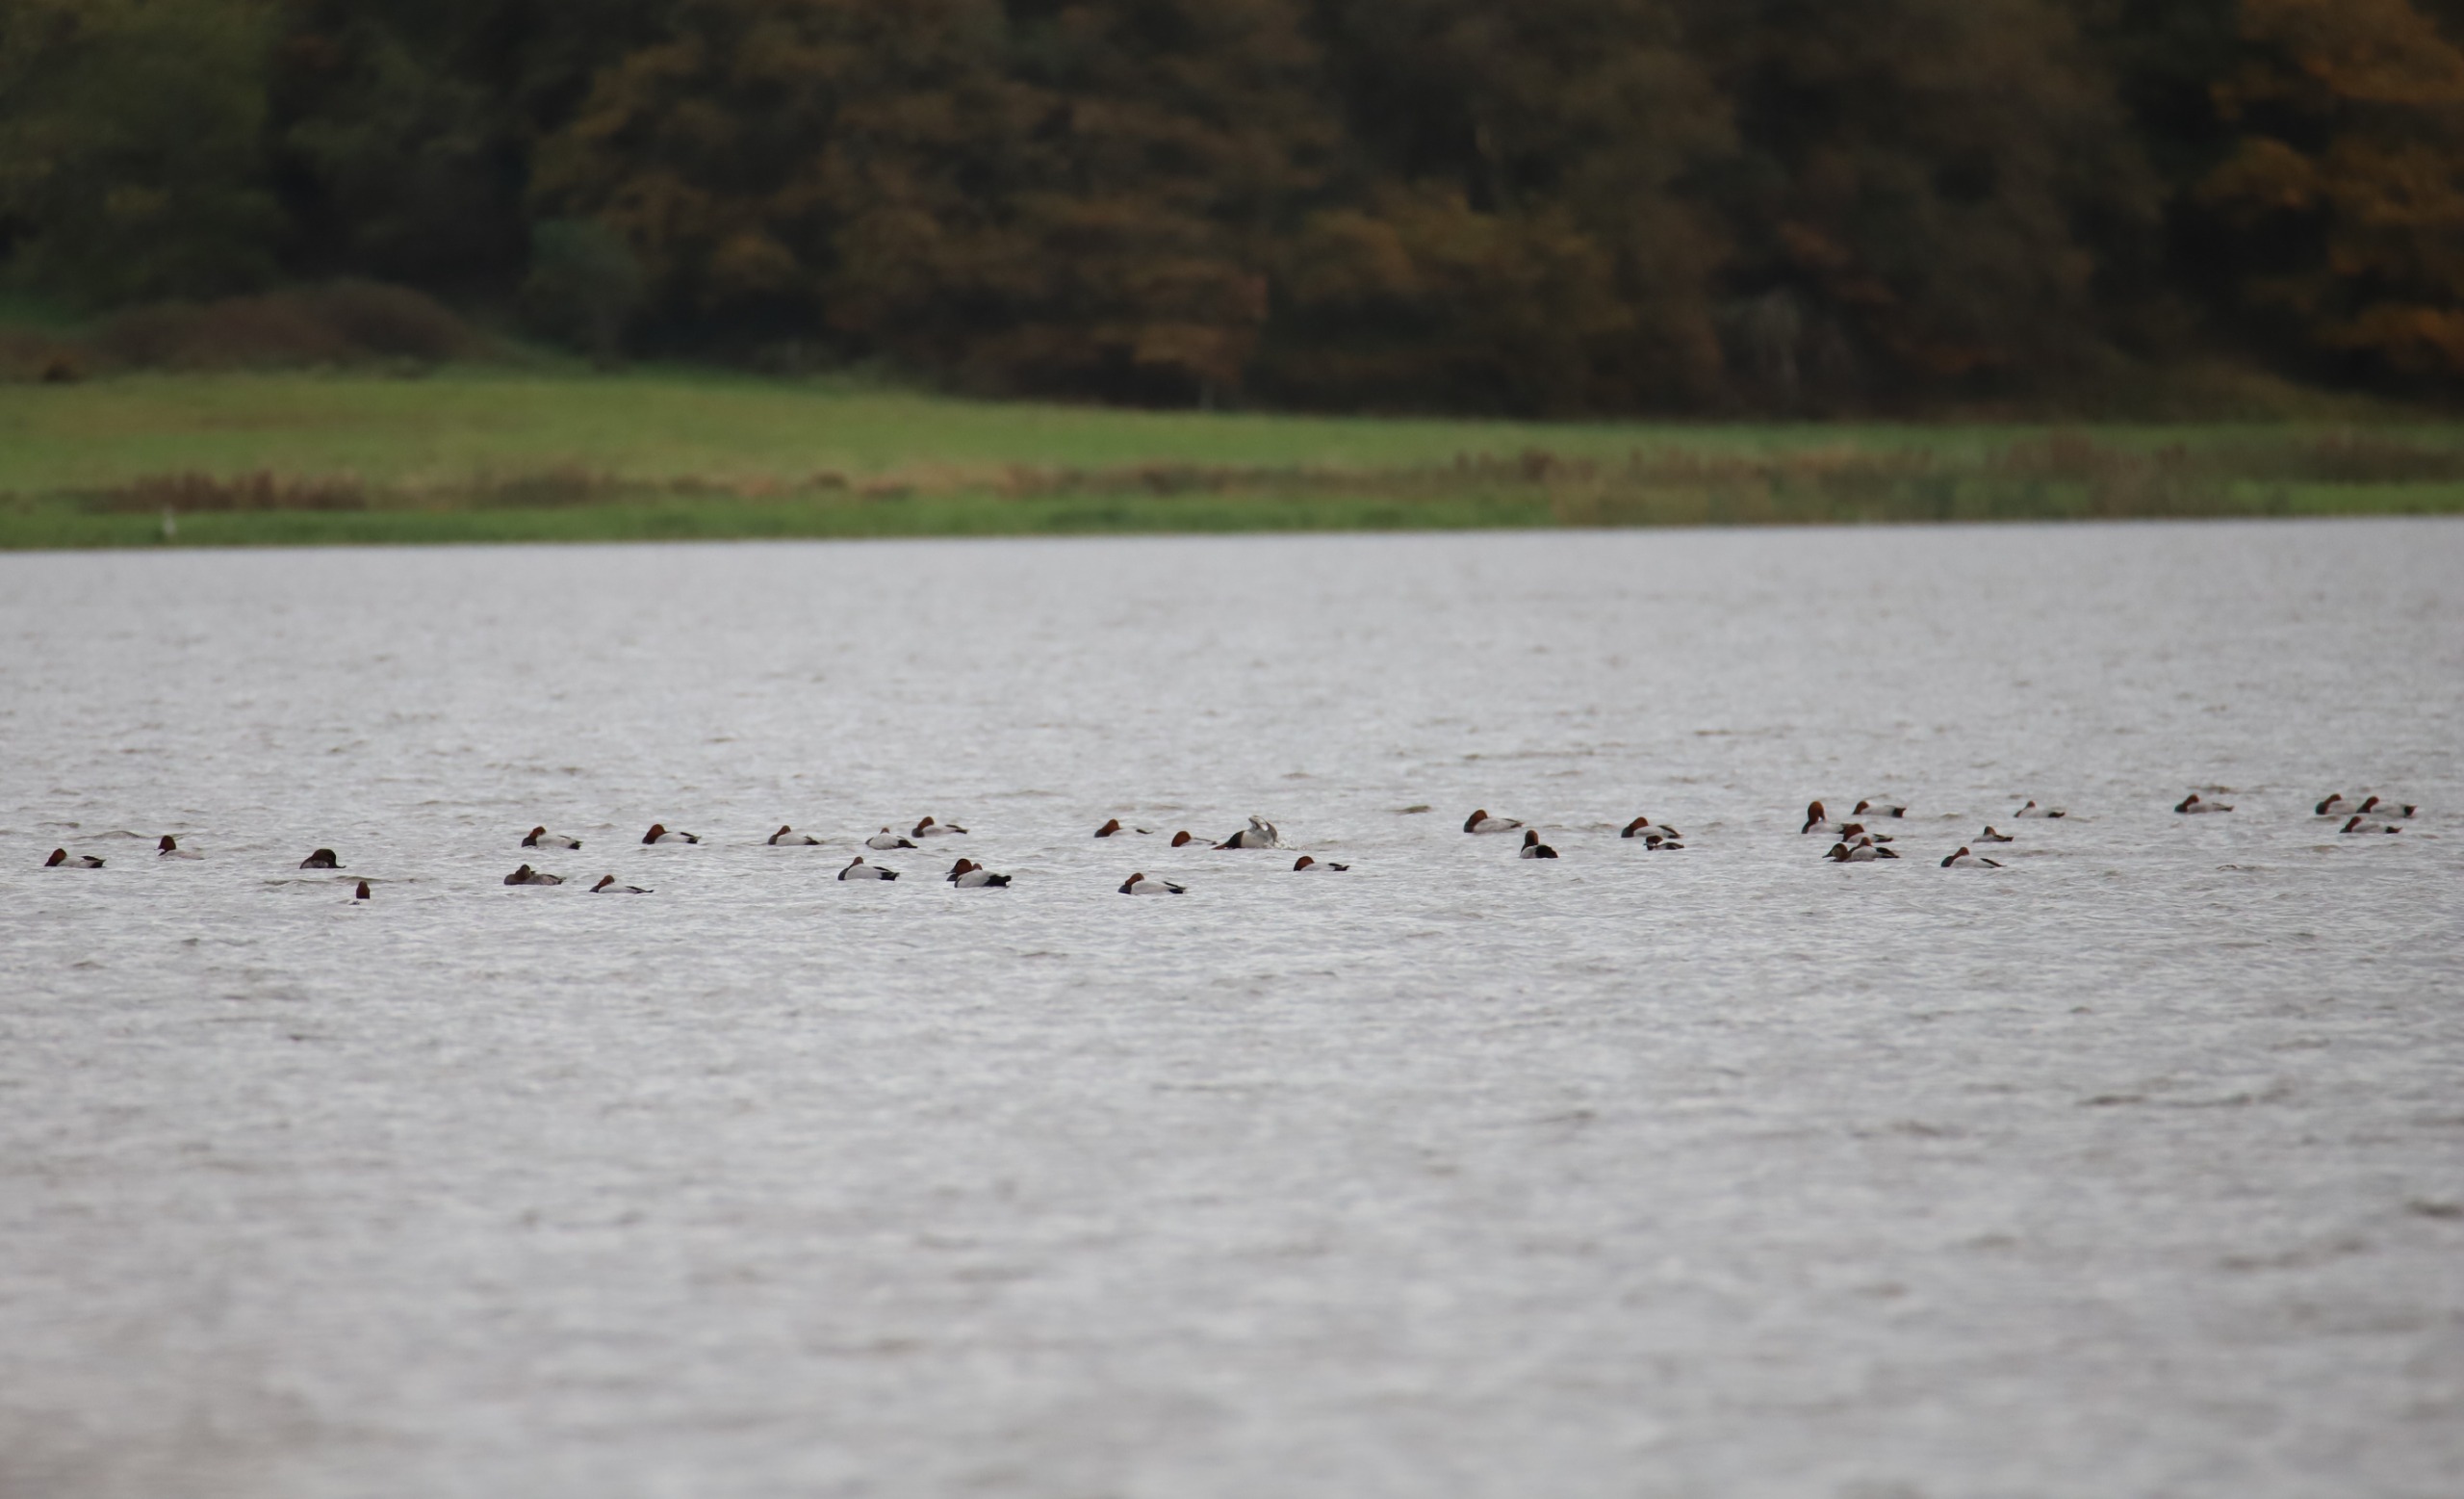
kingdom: Animalia
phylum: Chordata
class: Aves
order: Anseriformes
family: Anatidae
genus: Aythya
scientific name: Aythya ferina
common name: Taffeland
